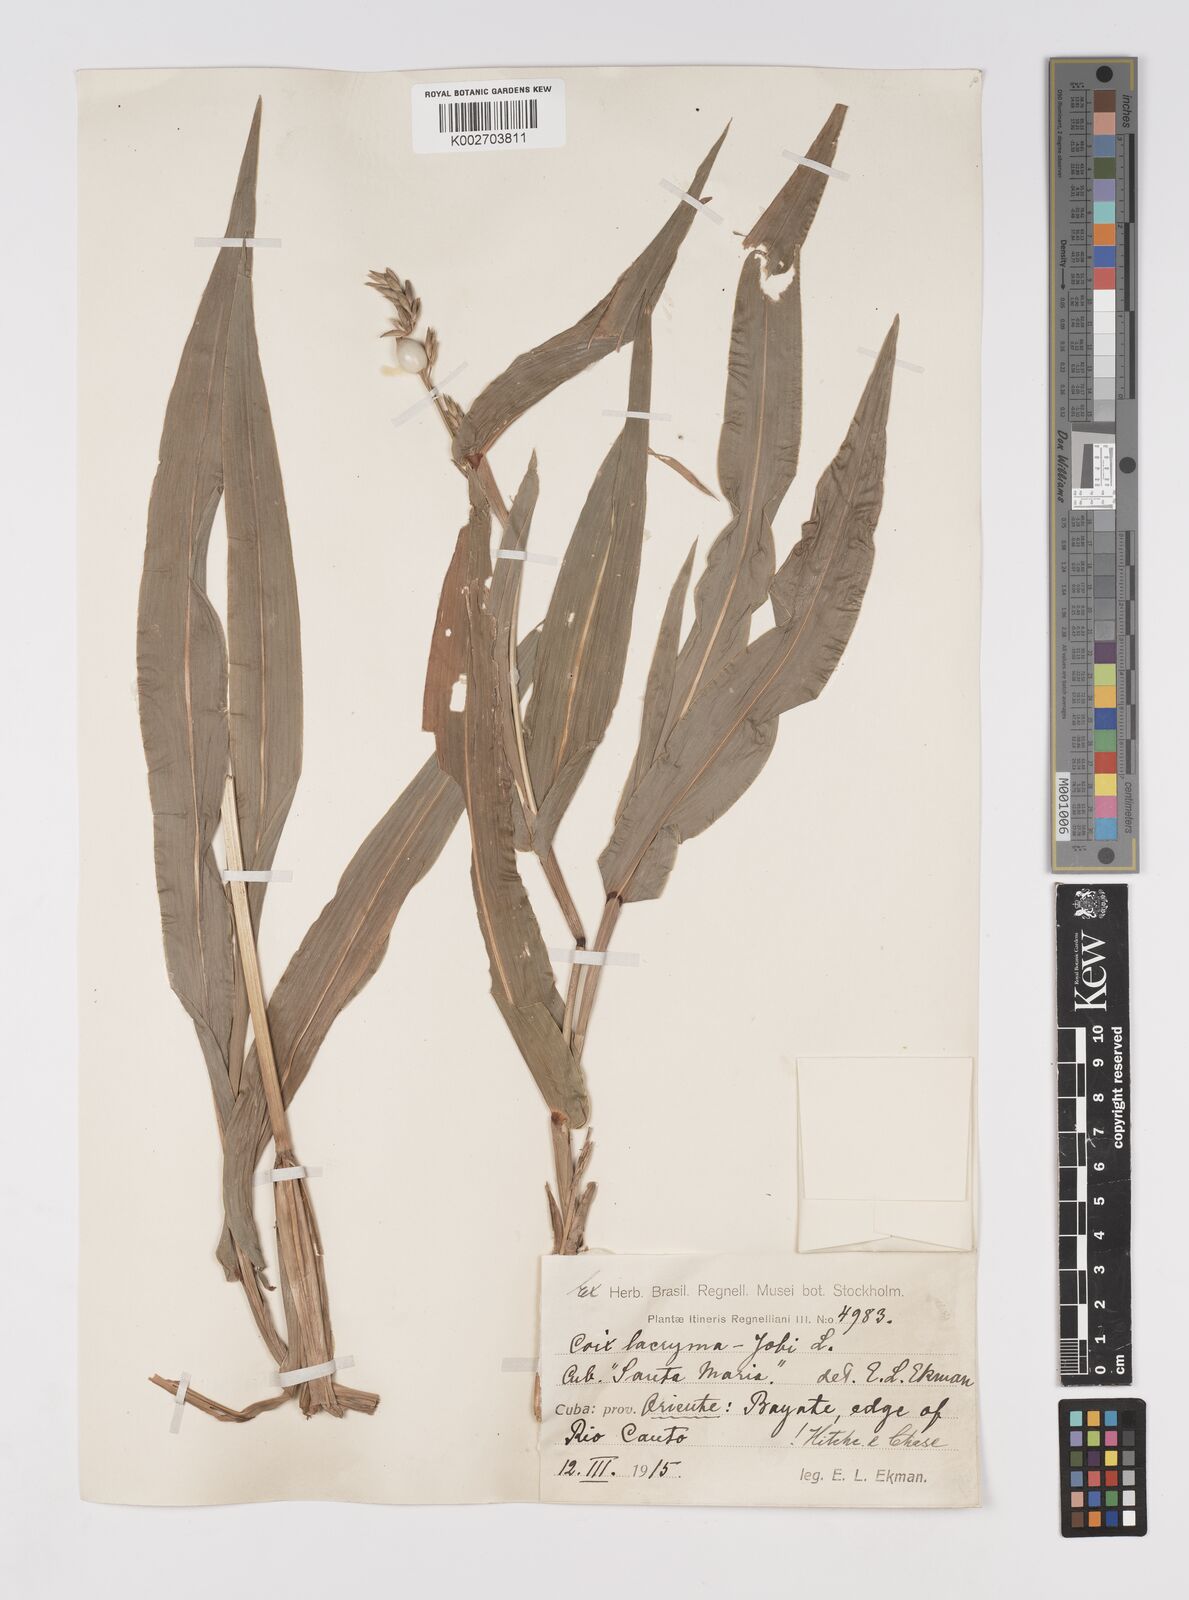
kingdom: Plantae
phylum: Tracheophyta
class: Liliopsida
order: Poales
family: Poaceae
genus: Coix
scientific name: Coix lacryma-jobi
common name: Job's tears
